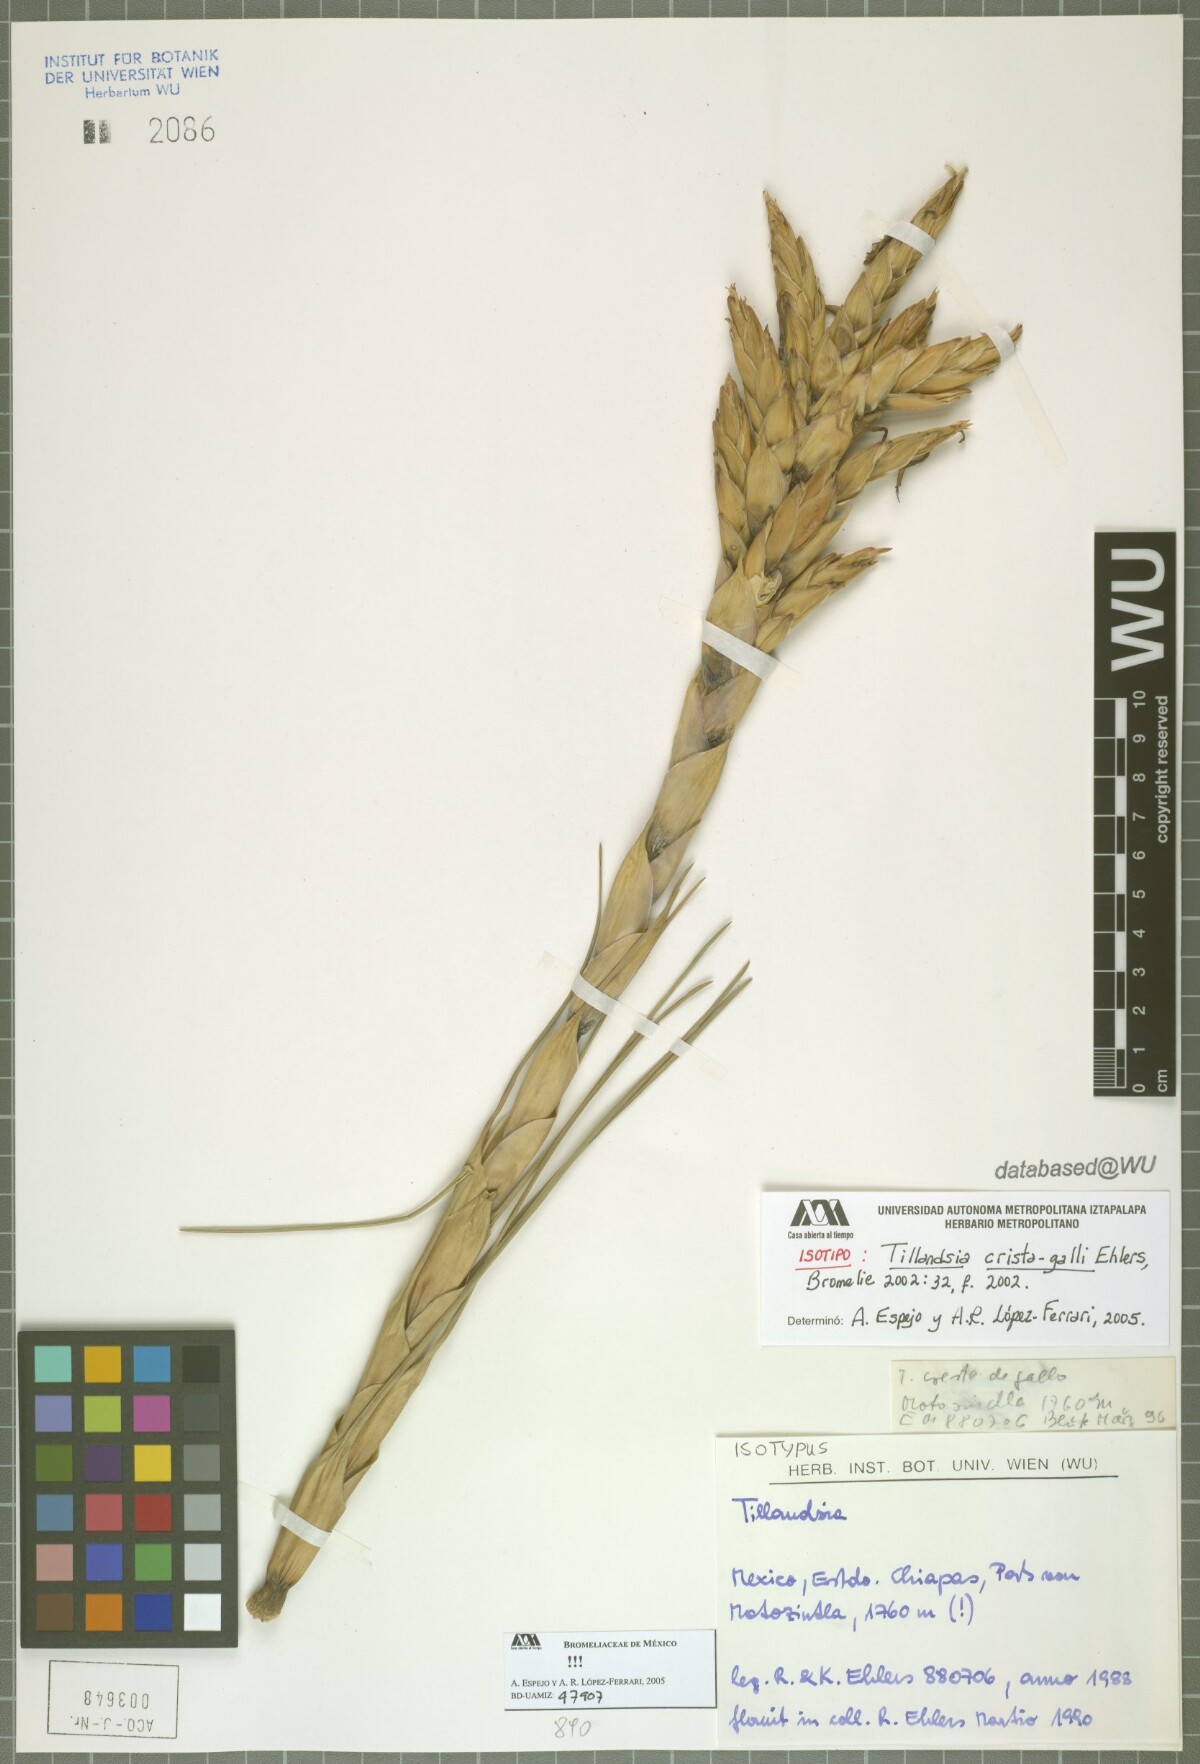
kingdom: Plantae
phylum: Tracheophyta
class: Liliopsida
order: Poales
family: Bromeliaceae
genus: Tillandsia
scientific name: Tillandsia crista-galli
